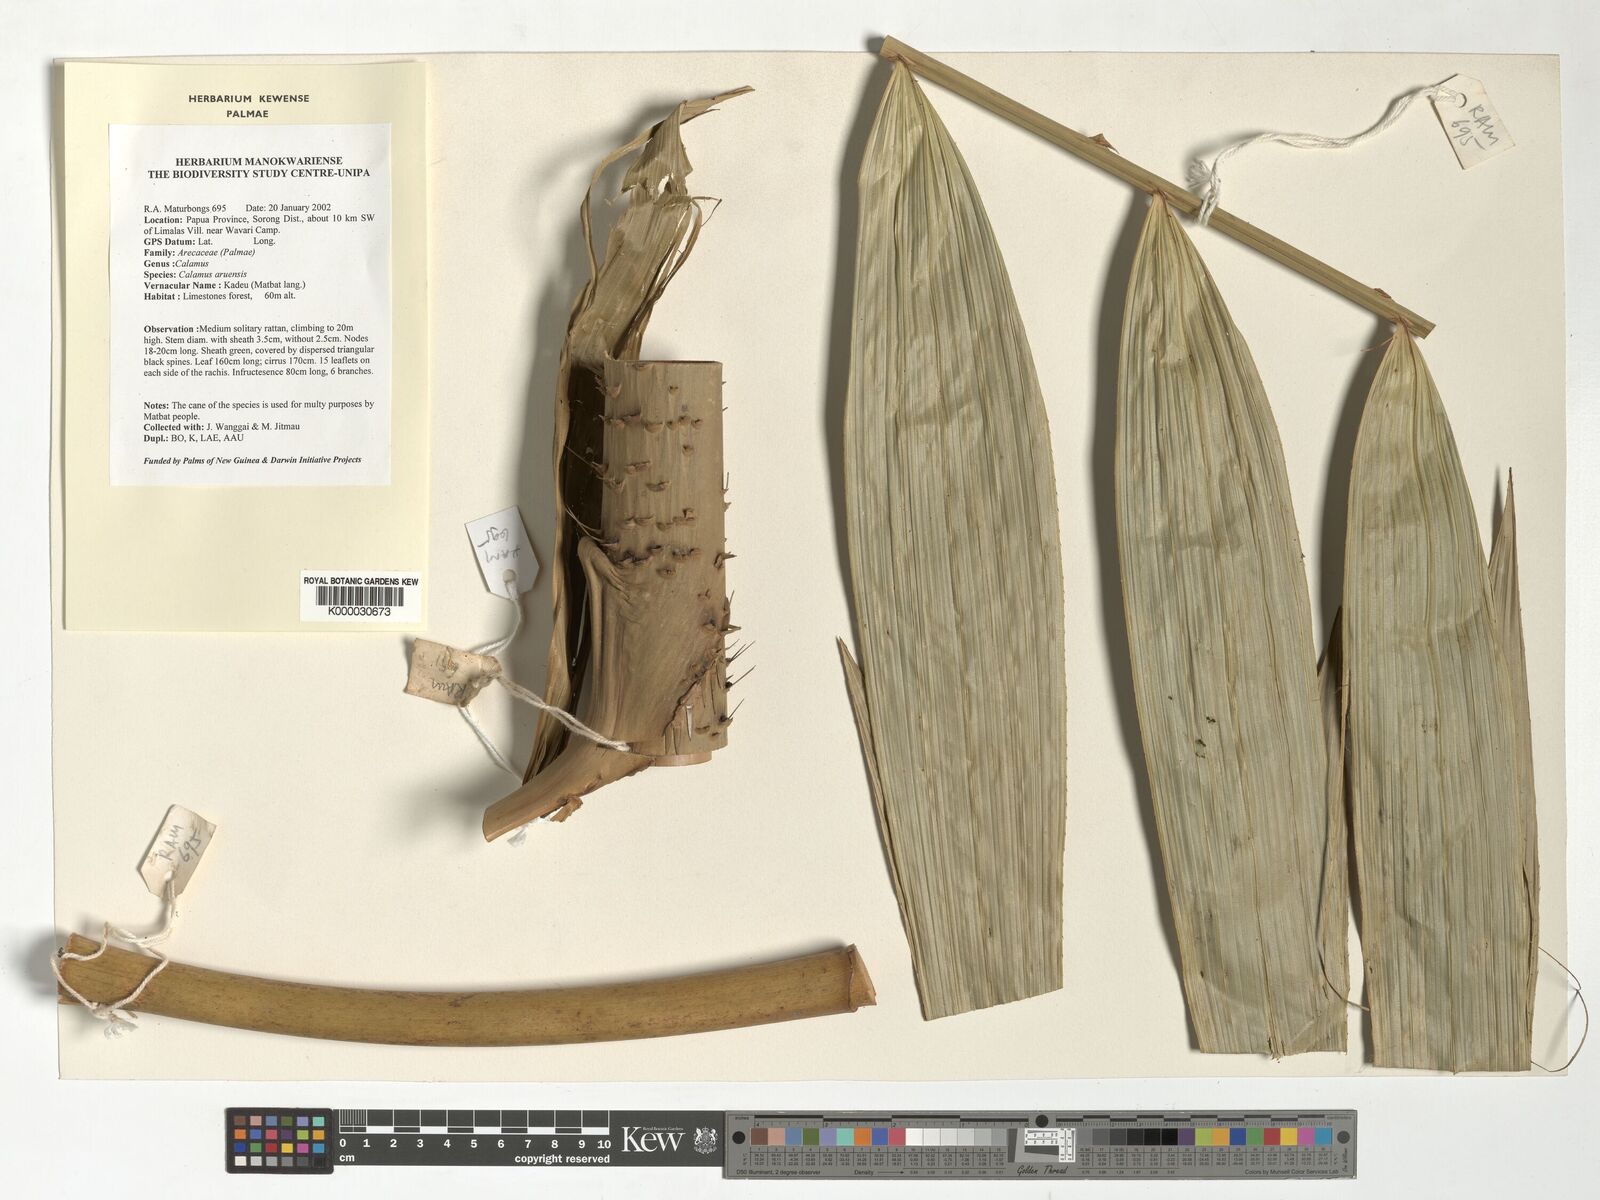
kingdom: Plantae
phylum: Tracheophyta
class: Liliopsida
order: Arecales
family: Arecaceae
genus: Calamus
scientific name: Calamus aruensis
